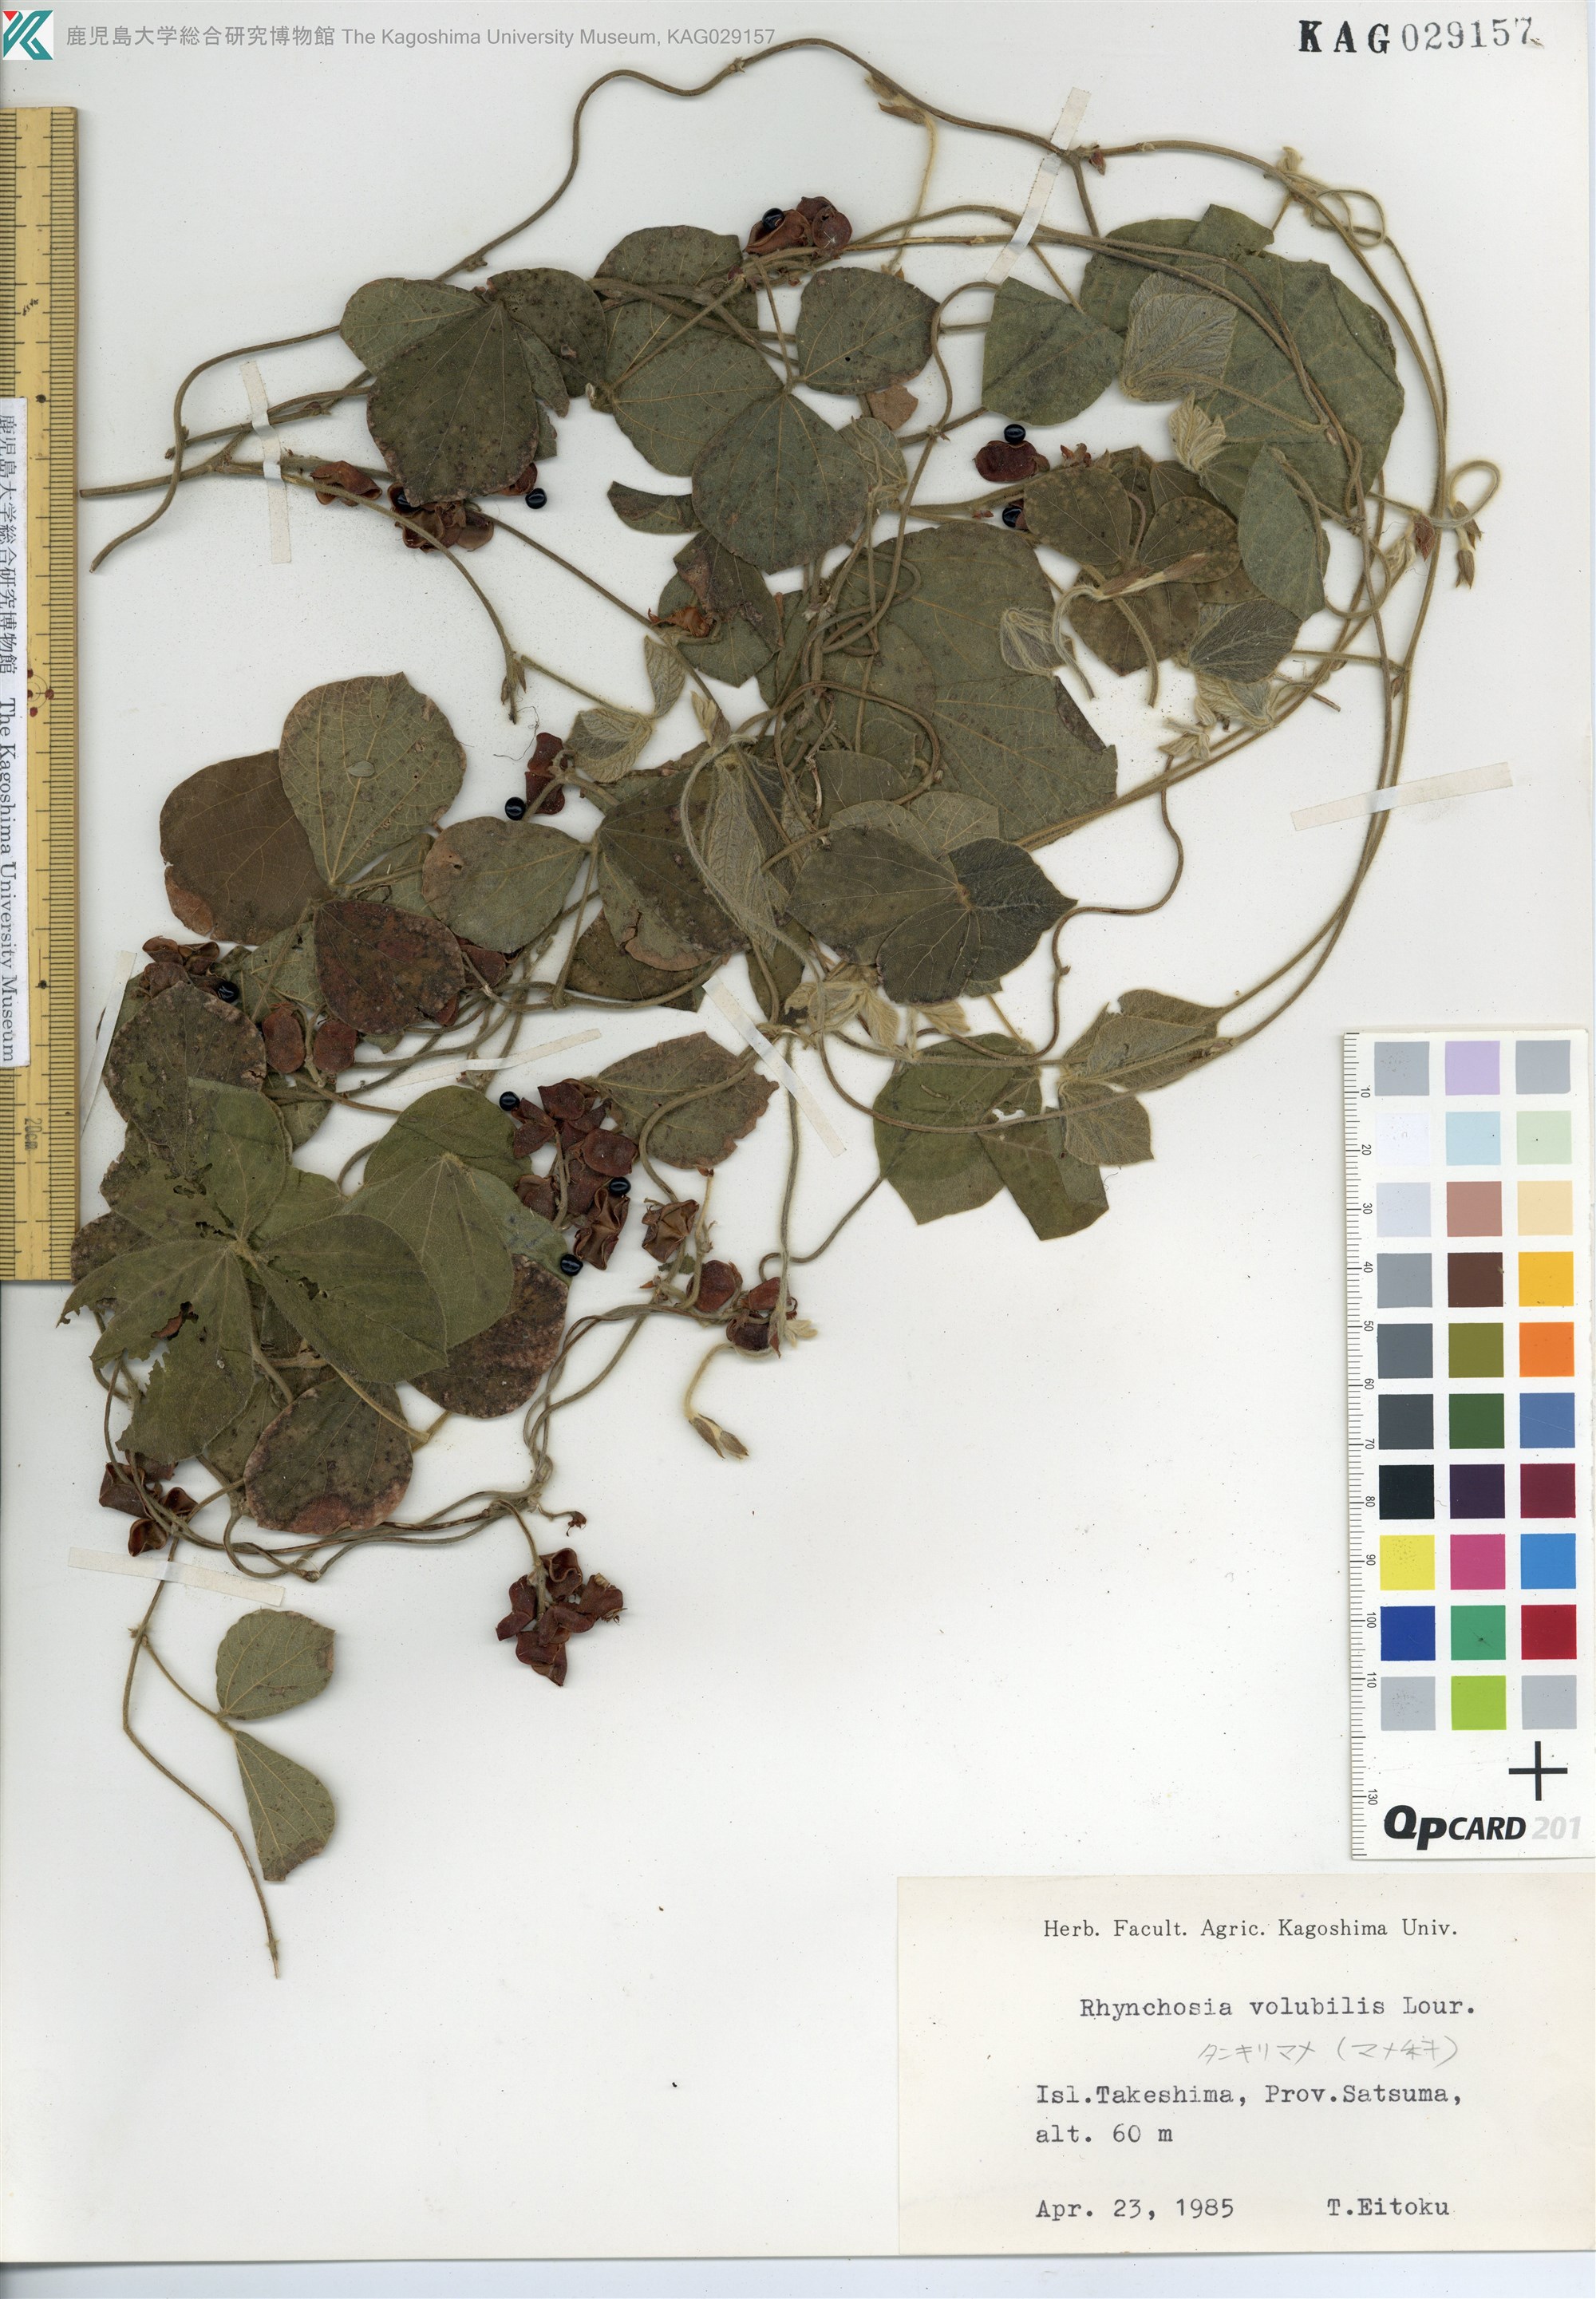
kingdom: Plantae
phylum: Tracheophyta
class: Magnoliopsida
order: Fabales
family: Fabaceae
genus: Rhynchosia
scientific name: Rhynchosia volubilis
